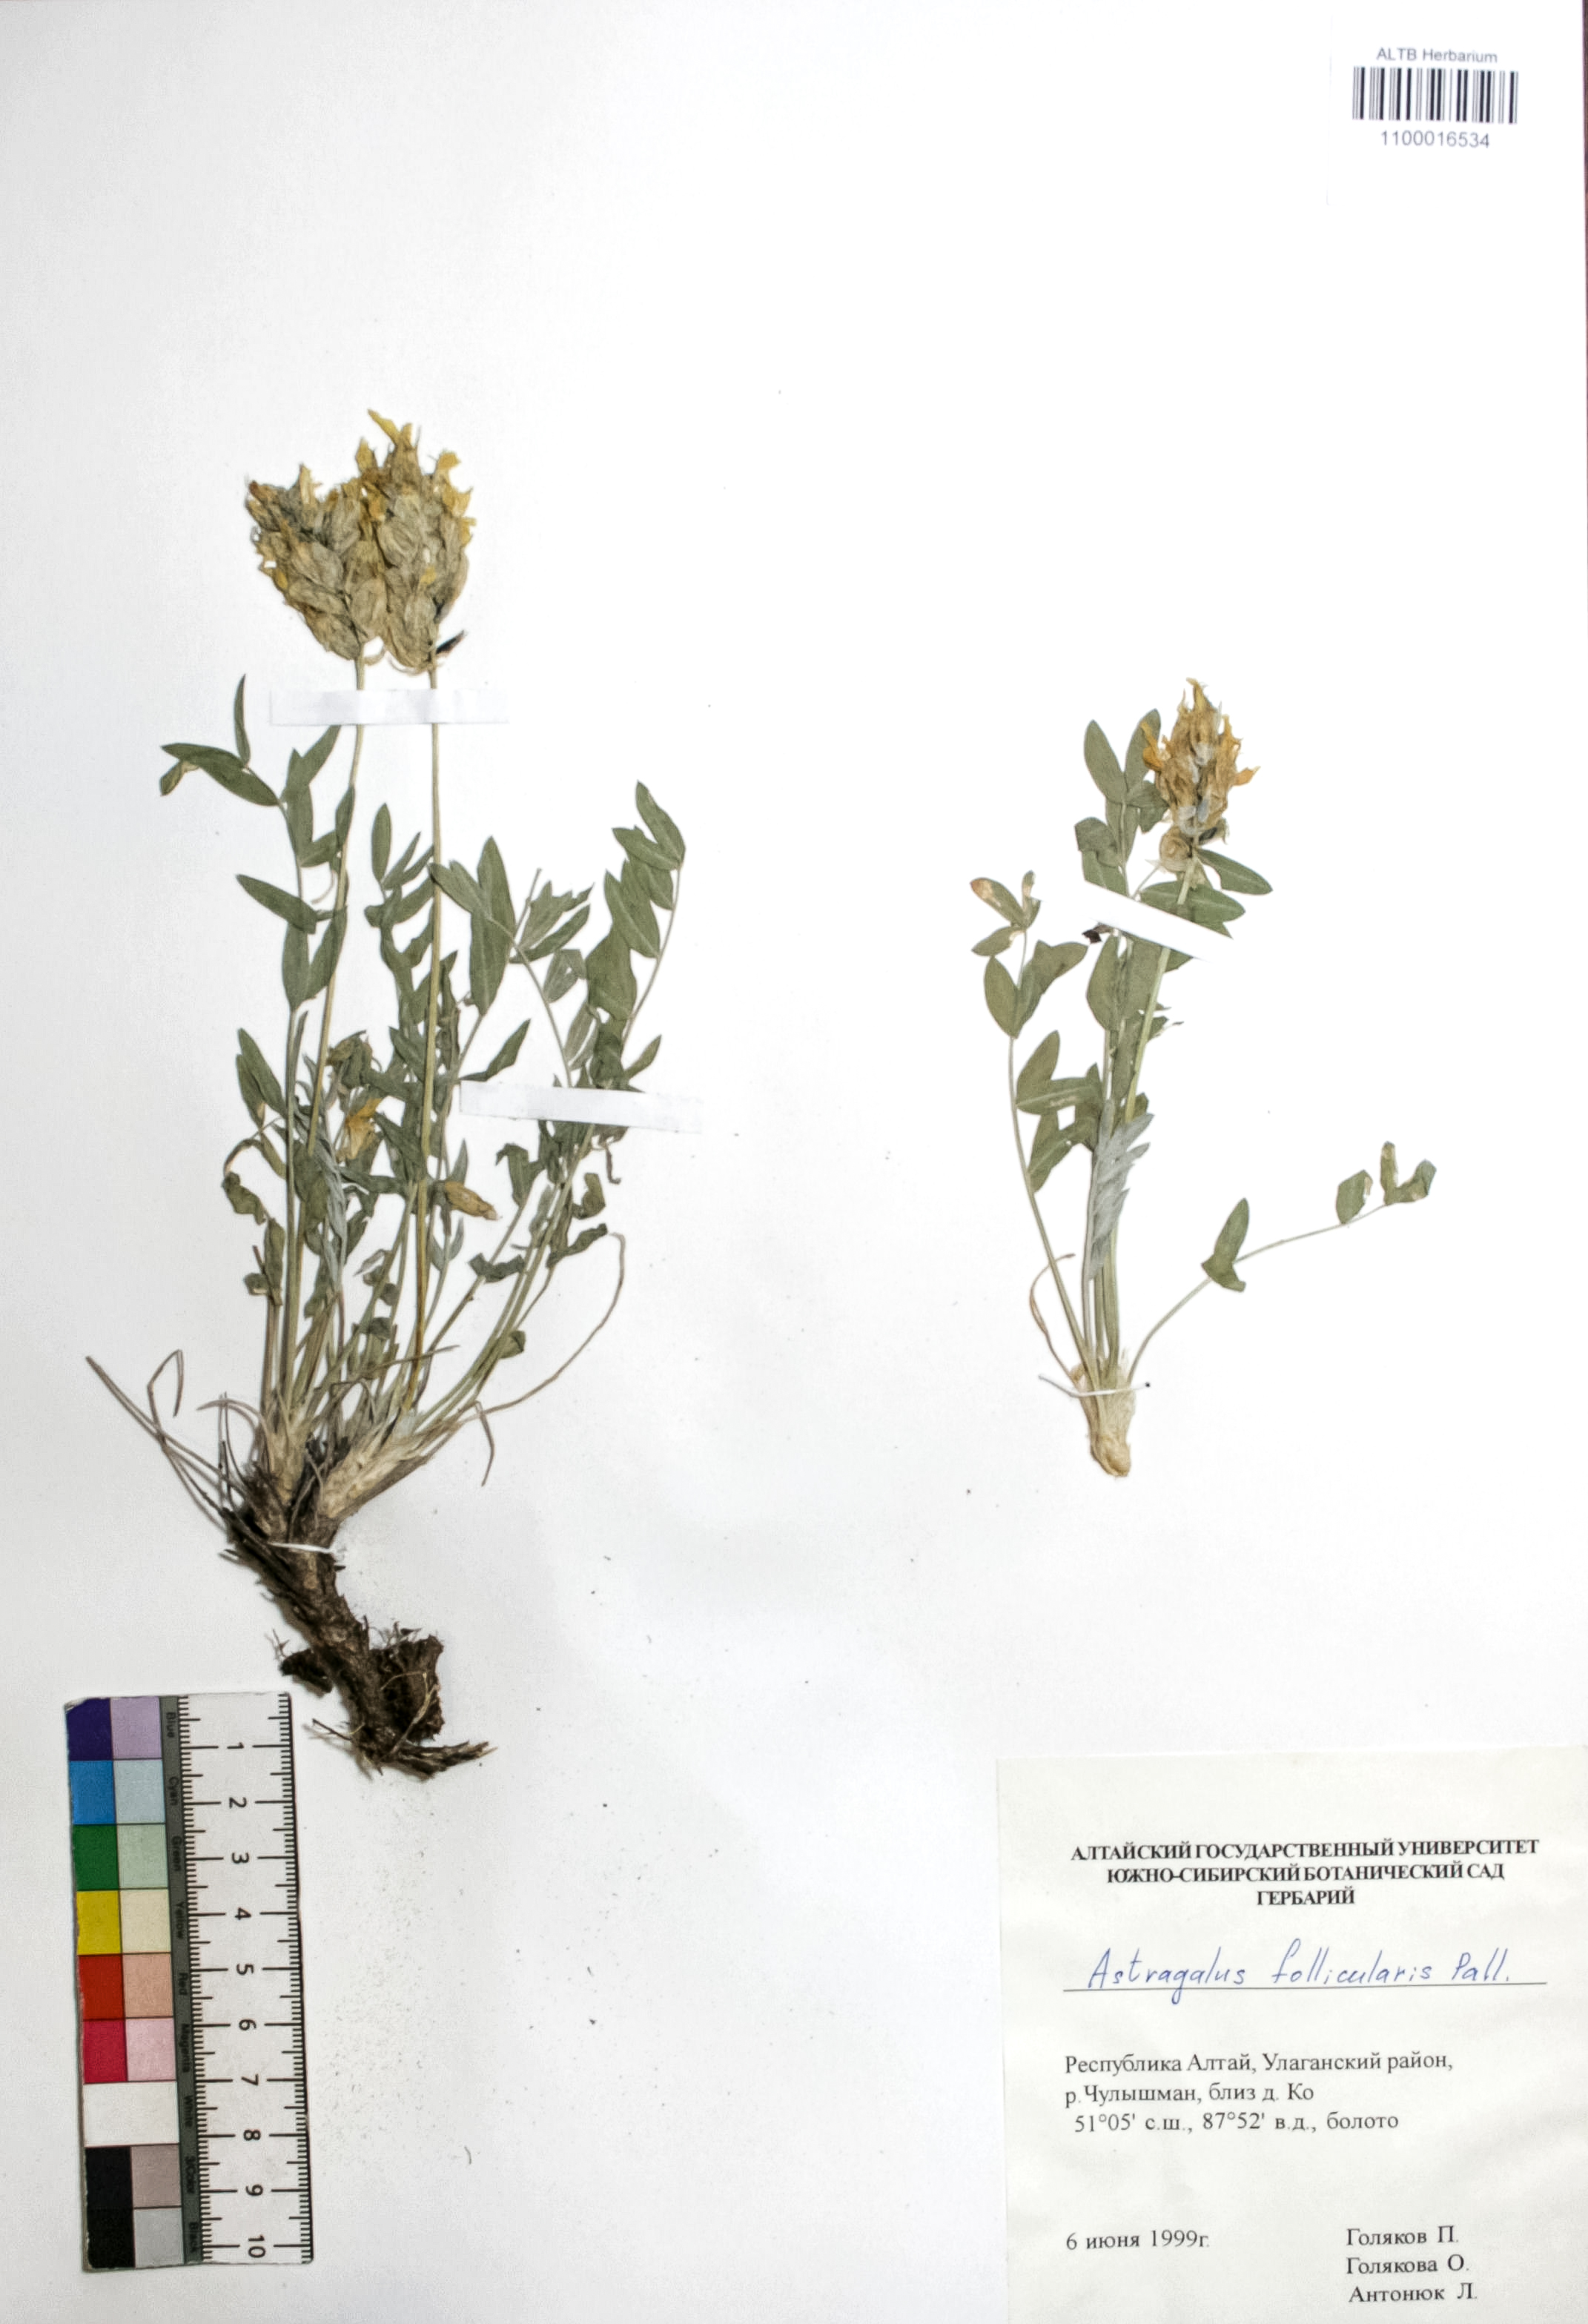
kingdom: Plantae
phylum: Tracheophyta
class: Magnoliopsida
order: Fabales
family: Fabaceae
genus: Astragalus
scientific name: Astragalus follicularis
